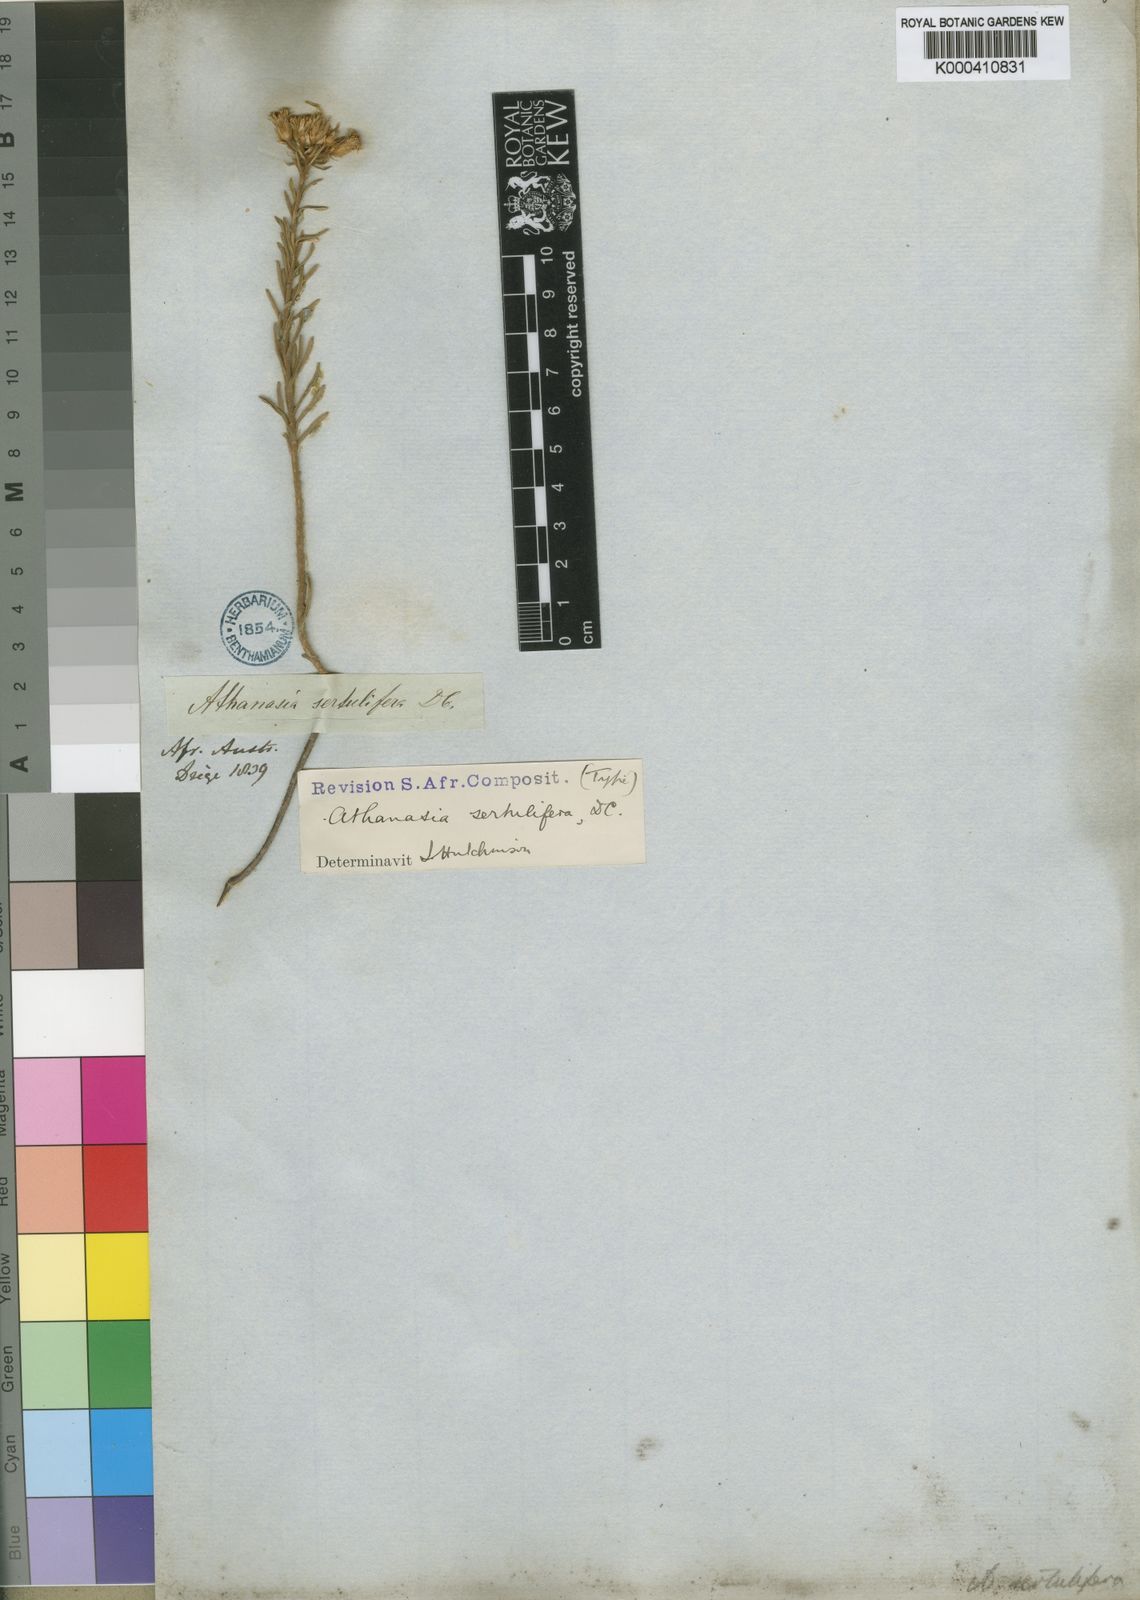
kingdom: Plantae
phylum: Tracheophyta
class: Magnoliopsida
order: Asterales
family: Asteraceae
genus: Athanasia
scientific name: Athanasia sertulifera
